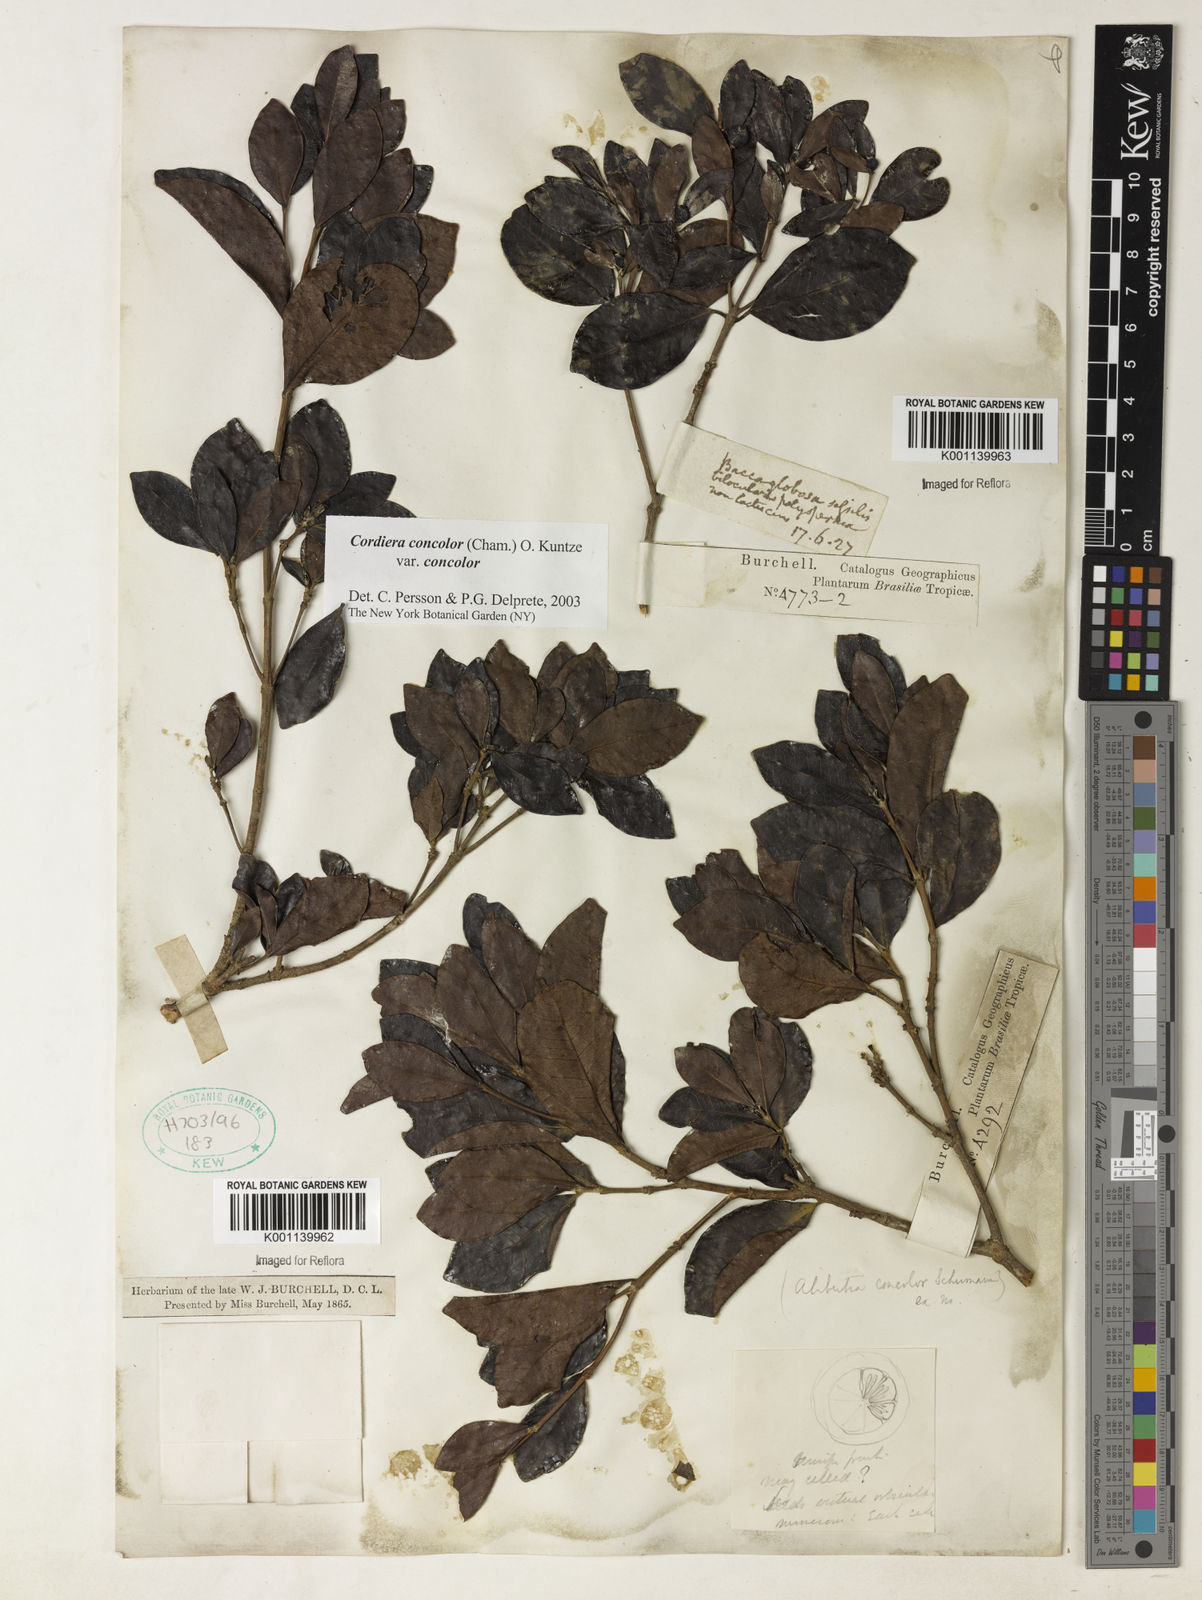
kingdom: Plantae
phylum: Tracheophyta
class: Magnoliopsida
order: Gentianales
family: Rubiaceae
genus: Cordiera
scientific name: Cordiera concolor
